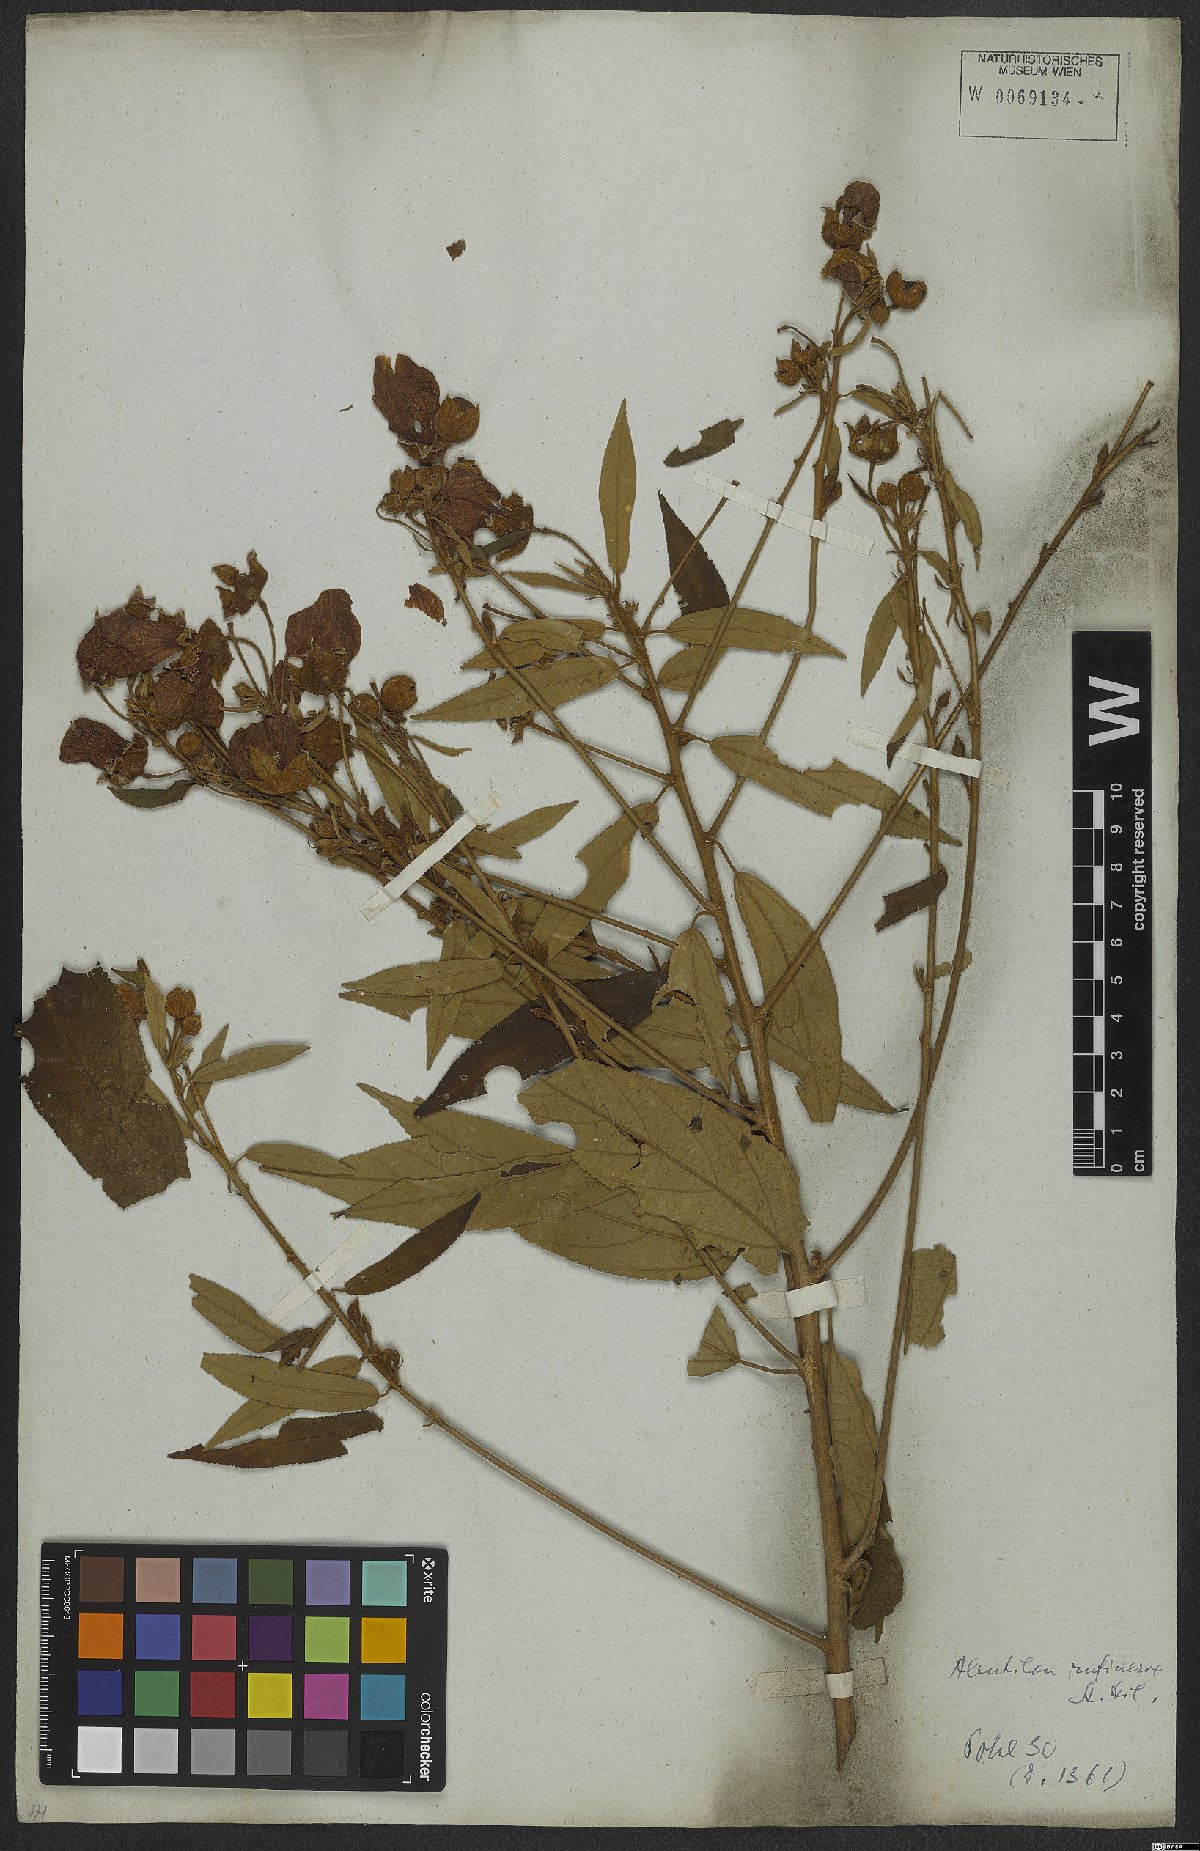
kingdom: Plantae
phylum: Tracheophyta
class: Magnoliopsida
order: Malvales
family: Malvaceae
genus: Callianthe
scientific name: Callianthe rufinerva
